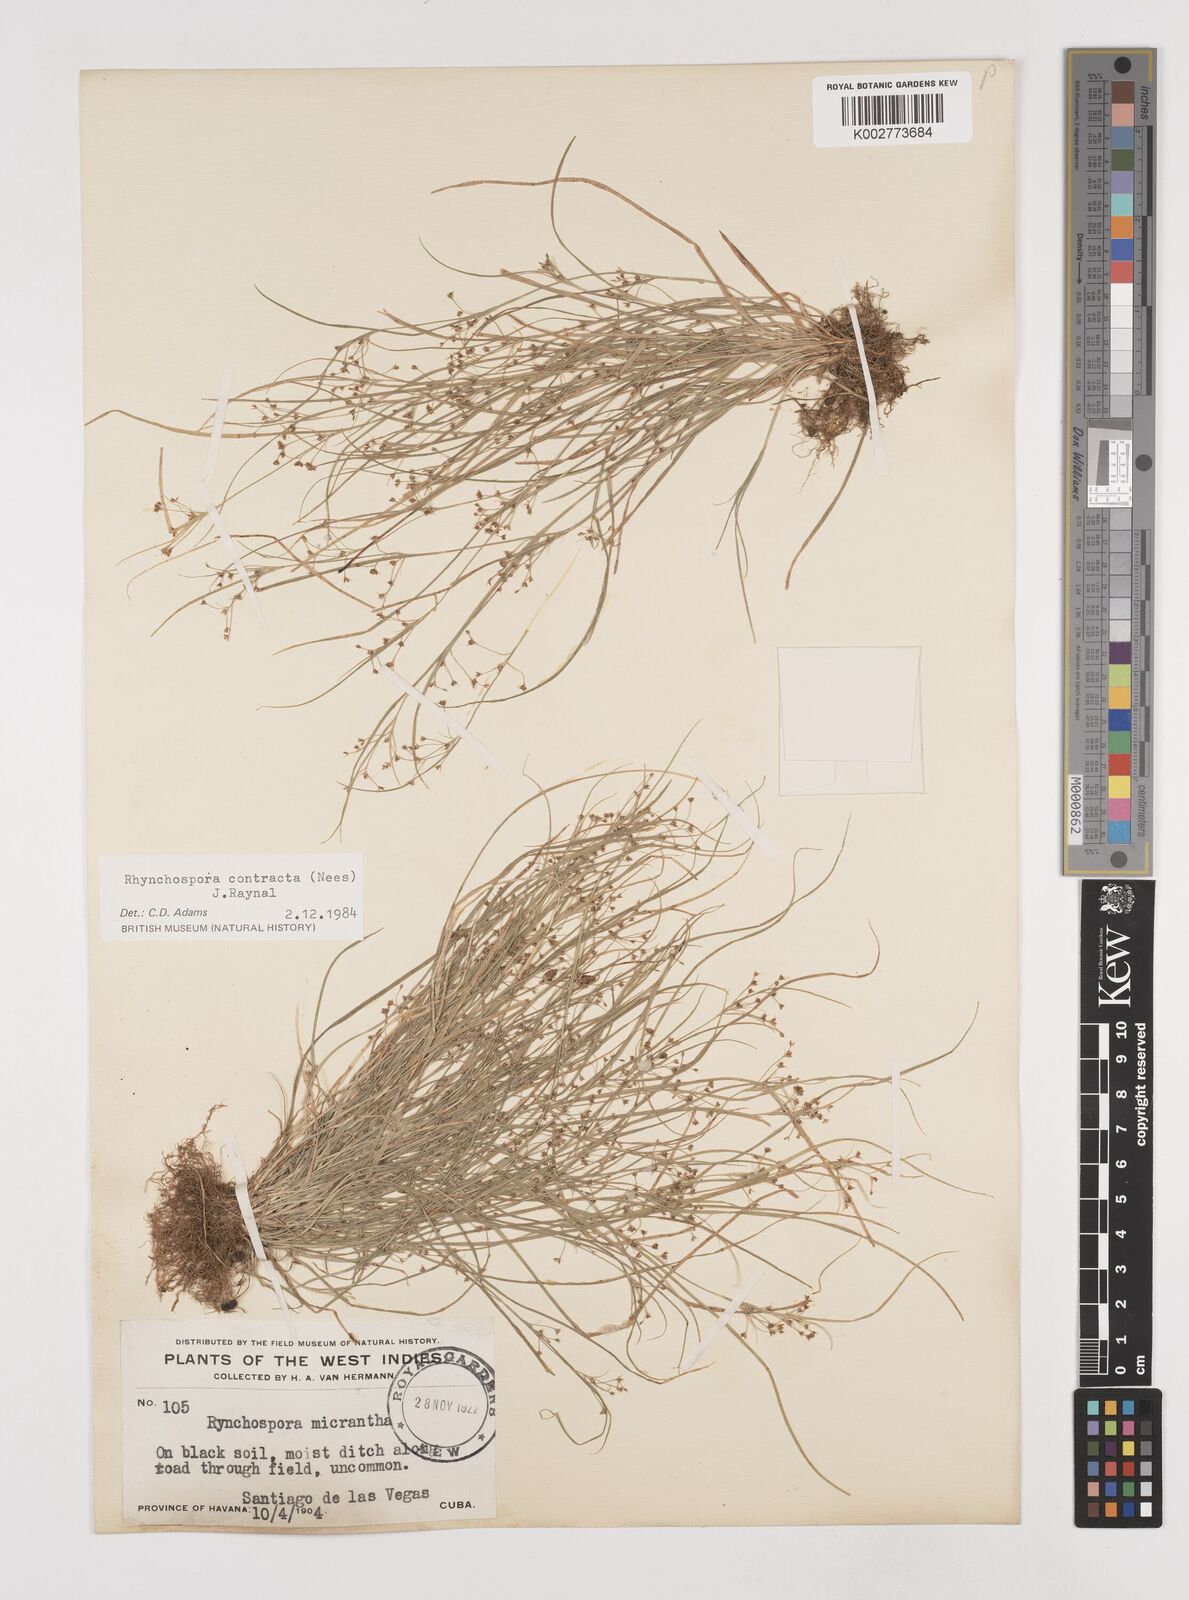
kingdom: Plantae
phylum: Tracheophyta
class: Liliopsida
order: Poales
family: Cyperaceae
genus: Rhynchospora
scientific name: Rhynchospora contracta
